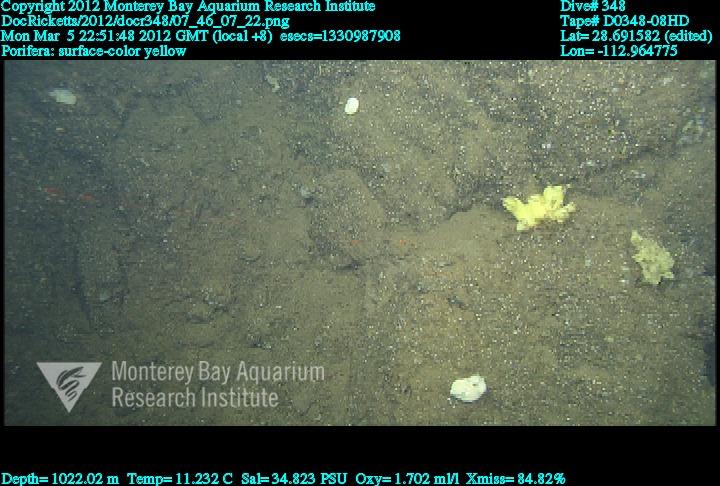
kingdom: Animalia
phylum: Porifera
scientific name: Porifera
